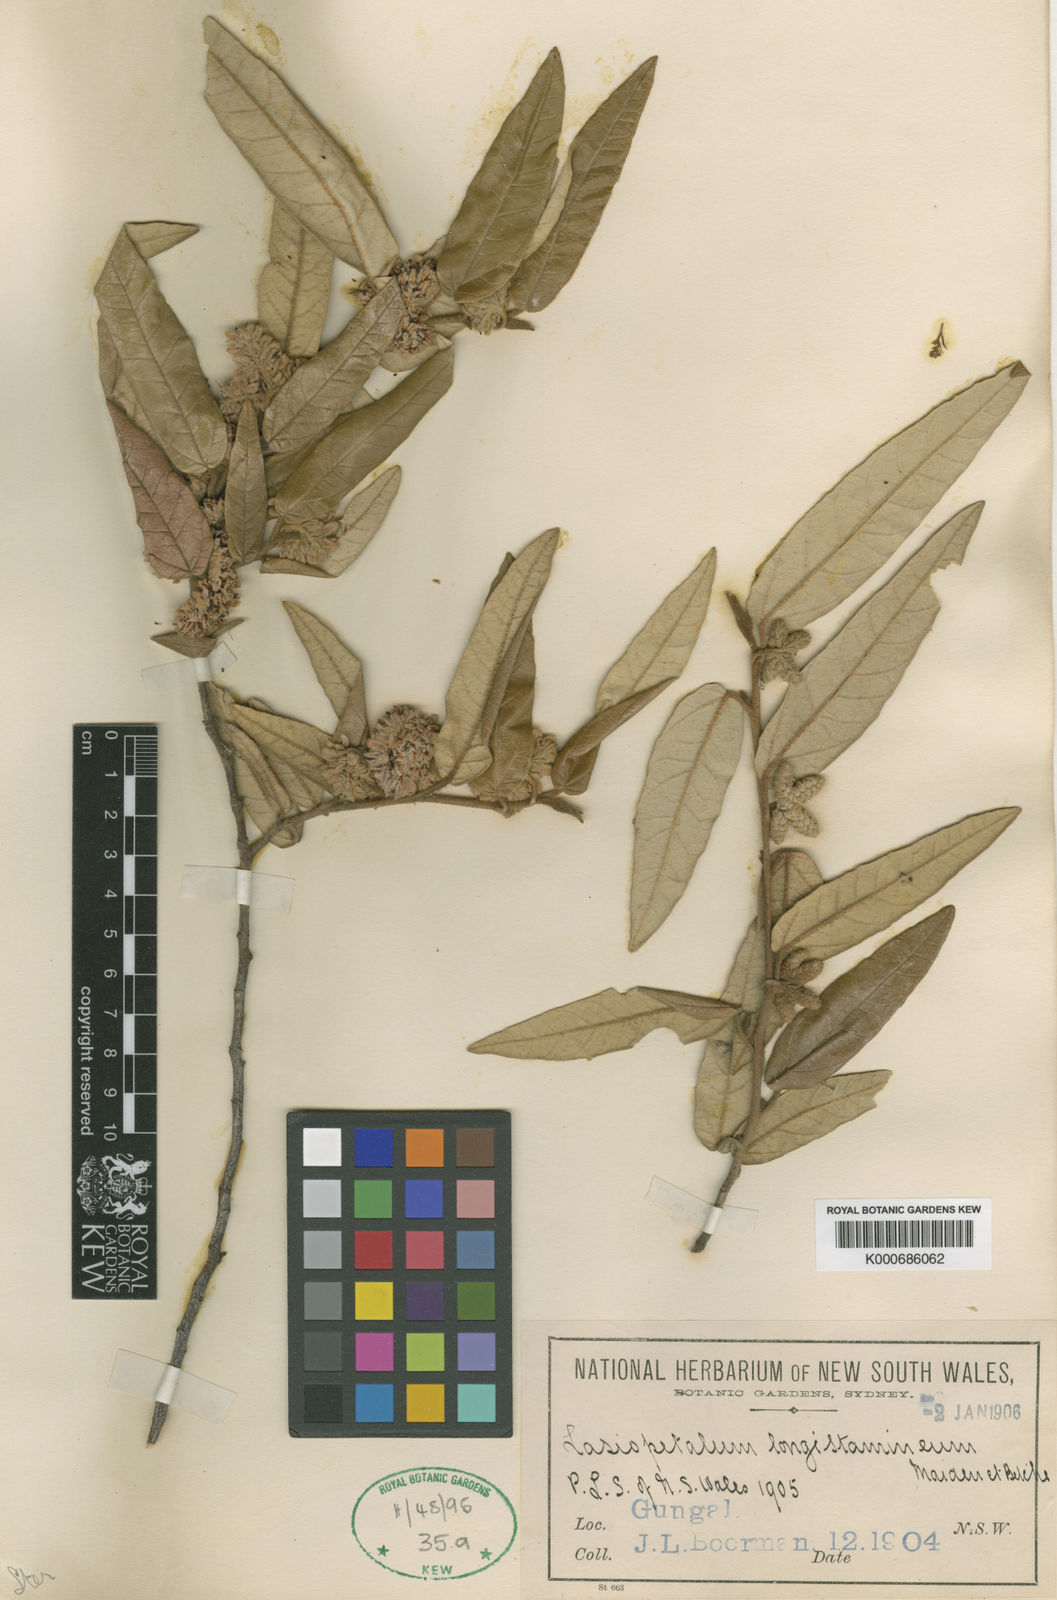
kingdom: Plantae
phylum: Tracheophyta
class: Magnoliopsida
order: Malvales
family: Malvaceae
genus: Lasiopetalum
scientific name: Lasiopetalum longistamineum
